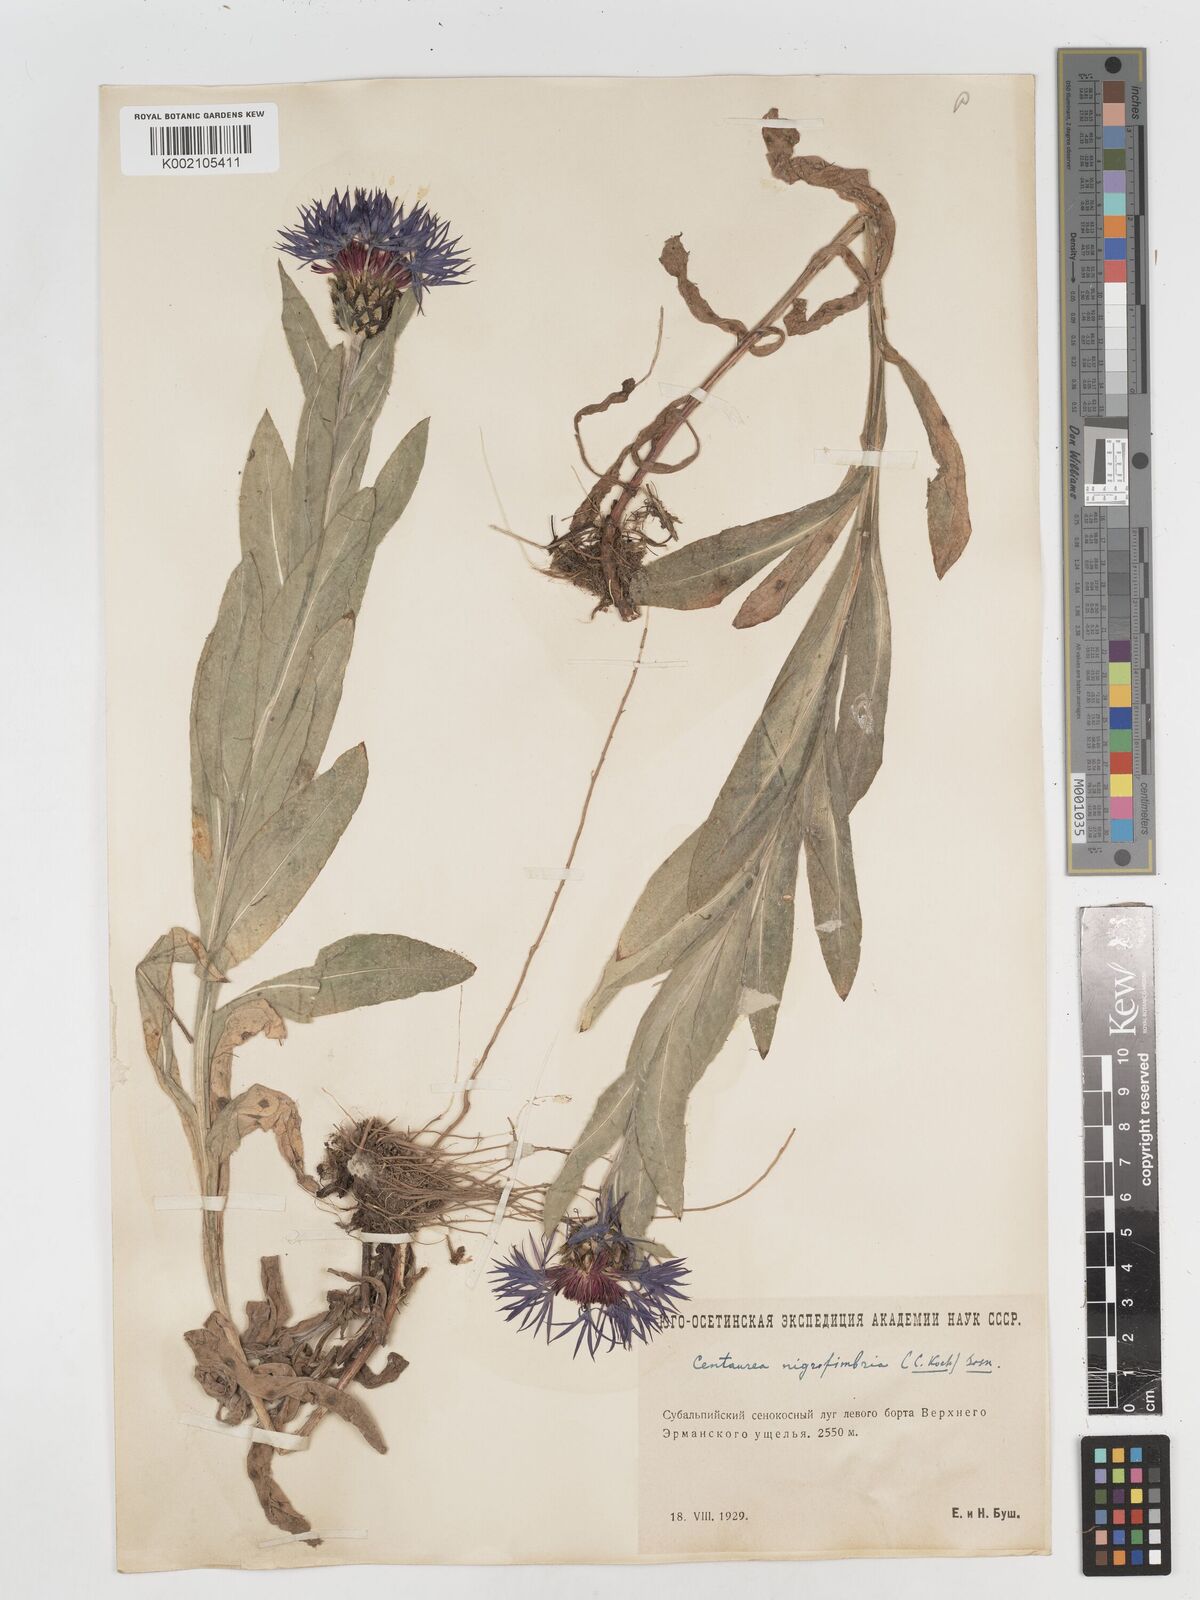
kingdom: Plantae
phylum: Tracheophyta
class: Magnoliopsida
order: Asterales
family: Asteraceae
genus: Centaurea
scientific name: Centaurea nigrofimbria
